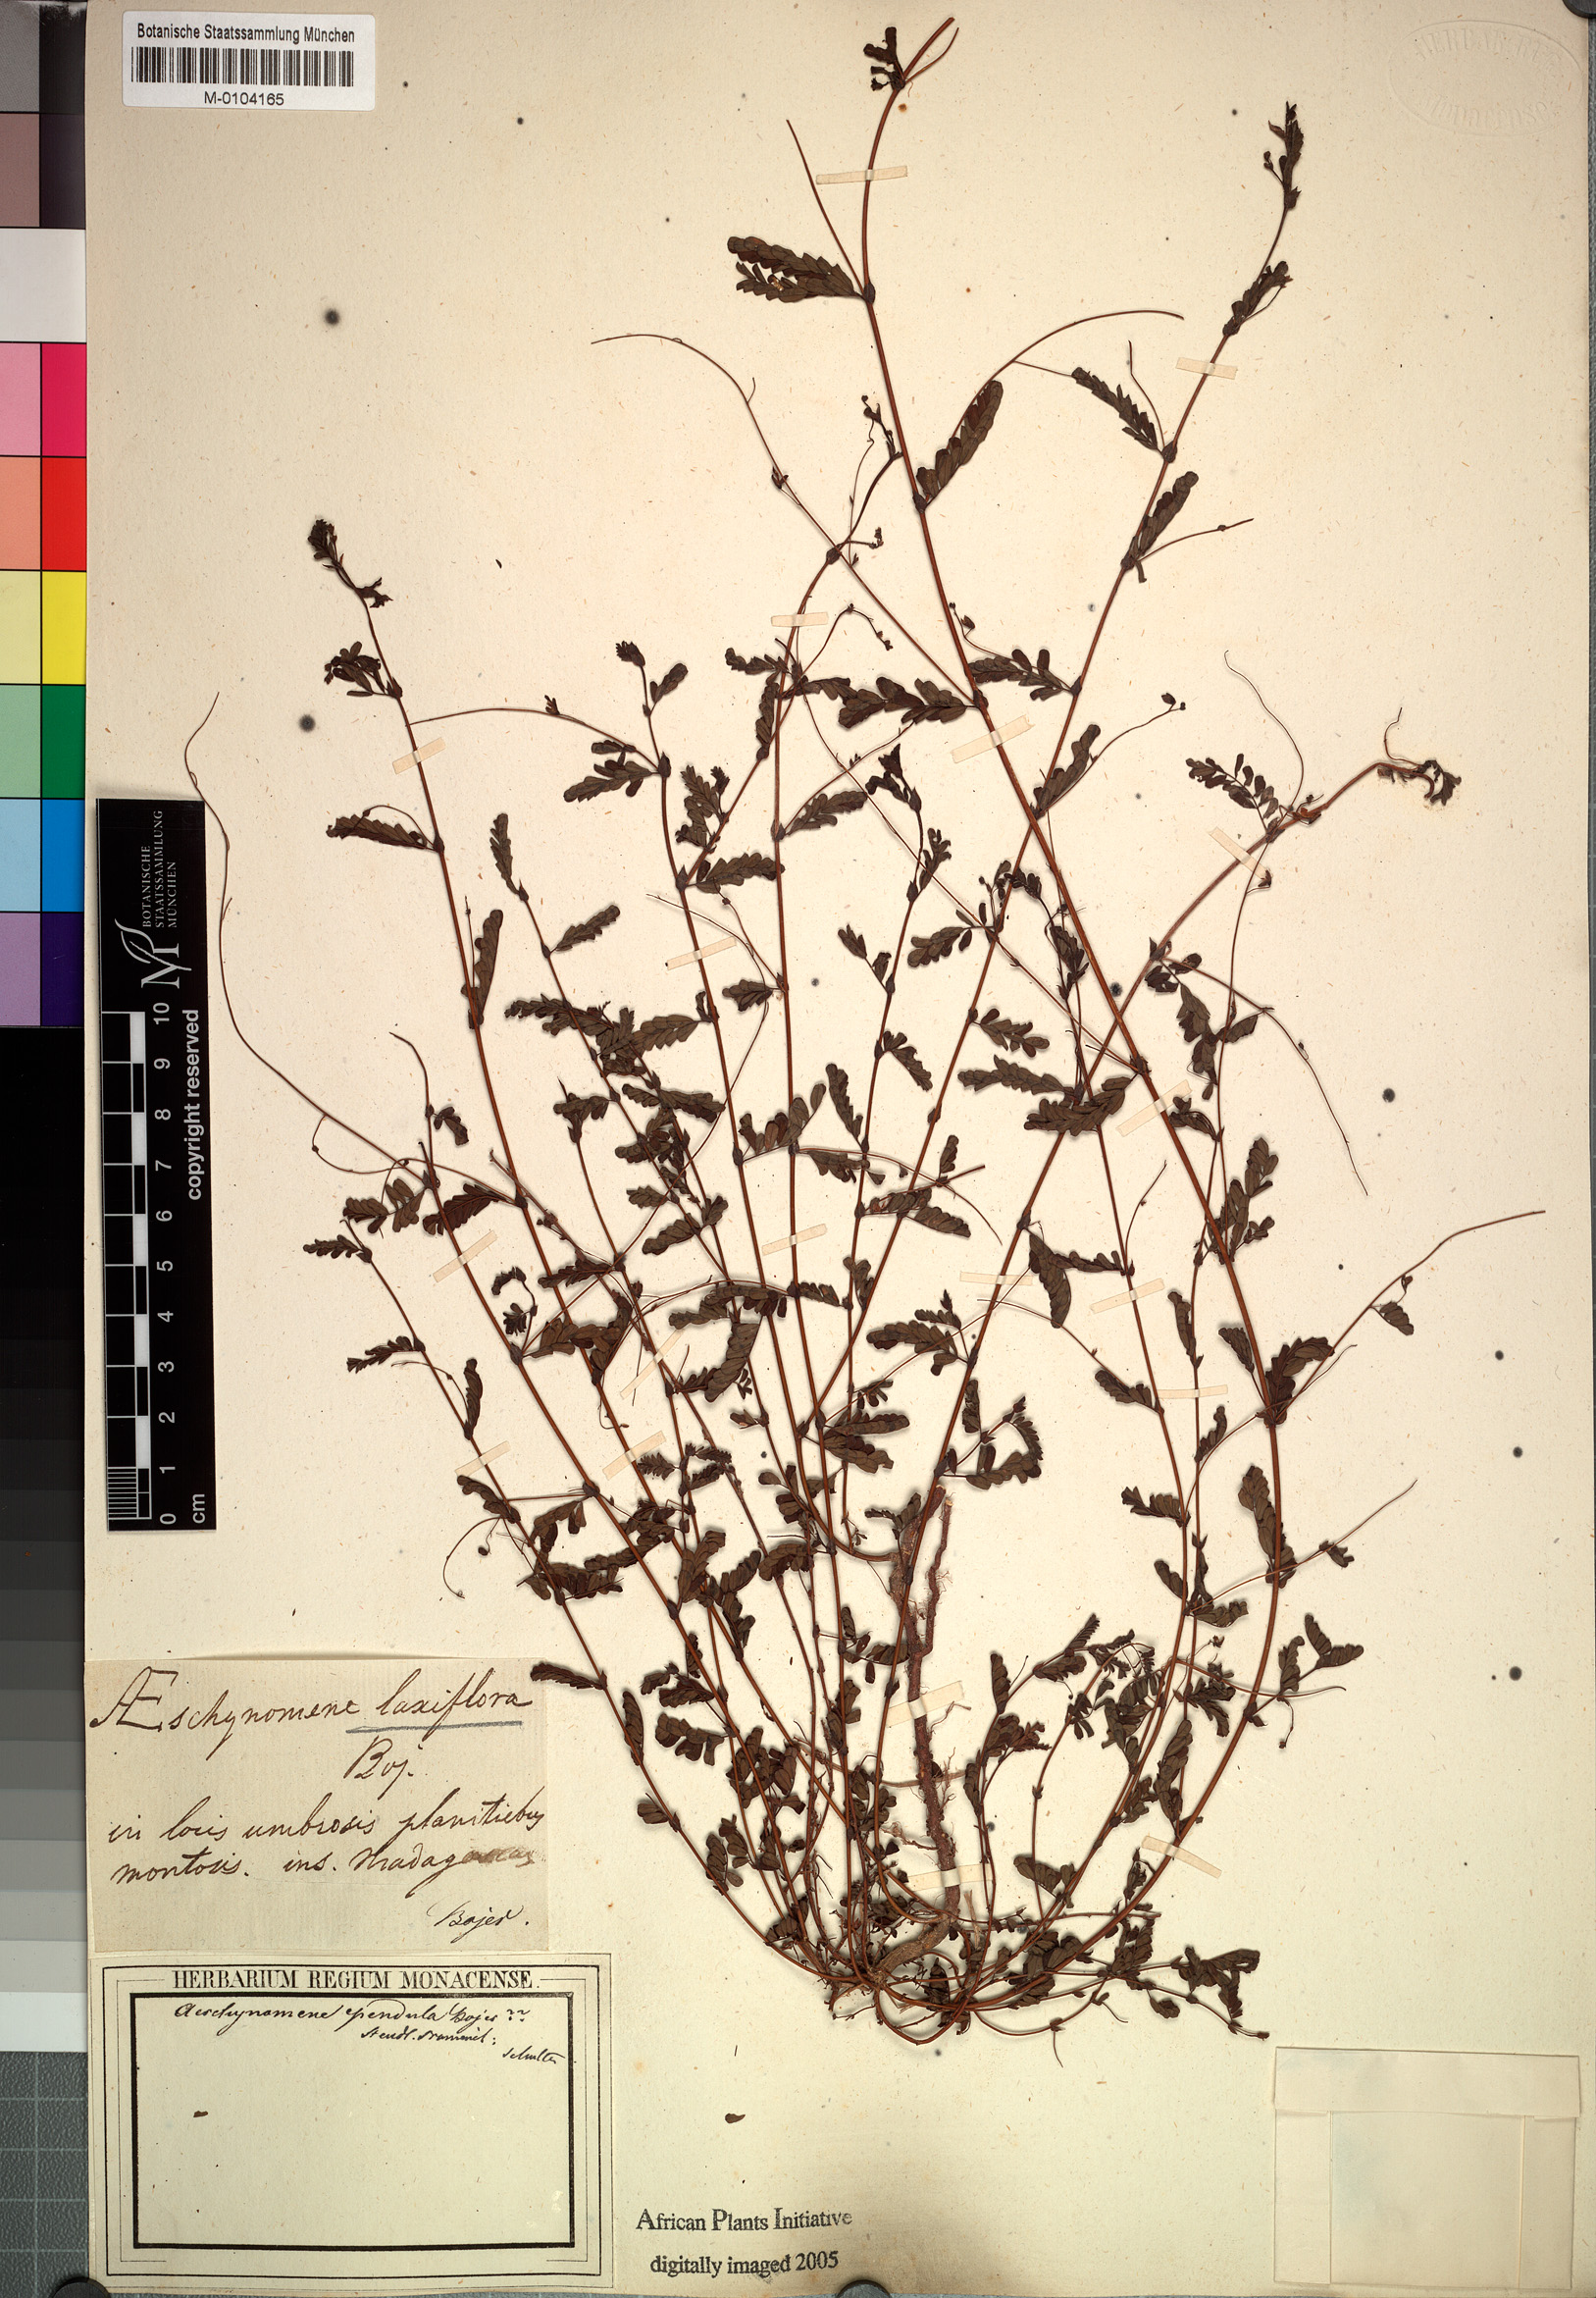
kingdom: Plantae
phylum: Tracheophyta
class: Magnoliopsida
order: Fabales
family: Fabaceae
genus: Aeschynomene
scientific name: Aeschynomene laxiflora
